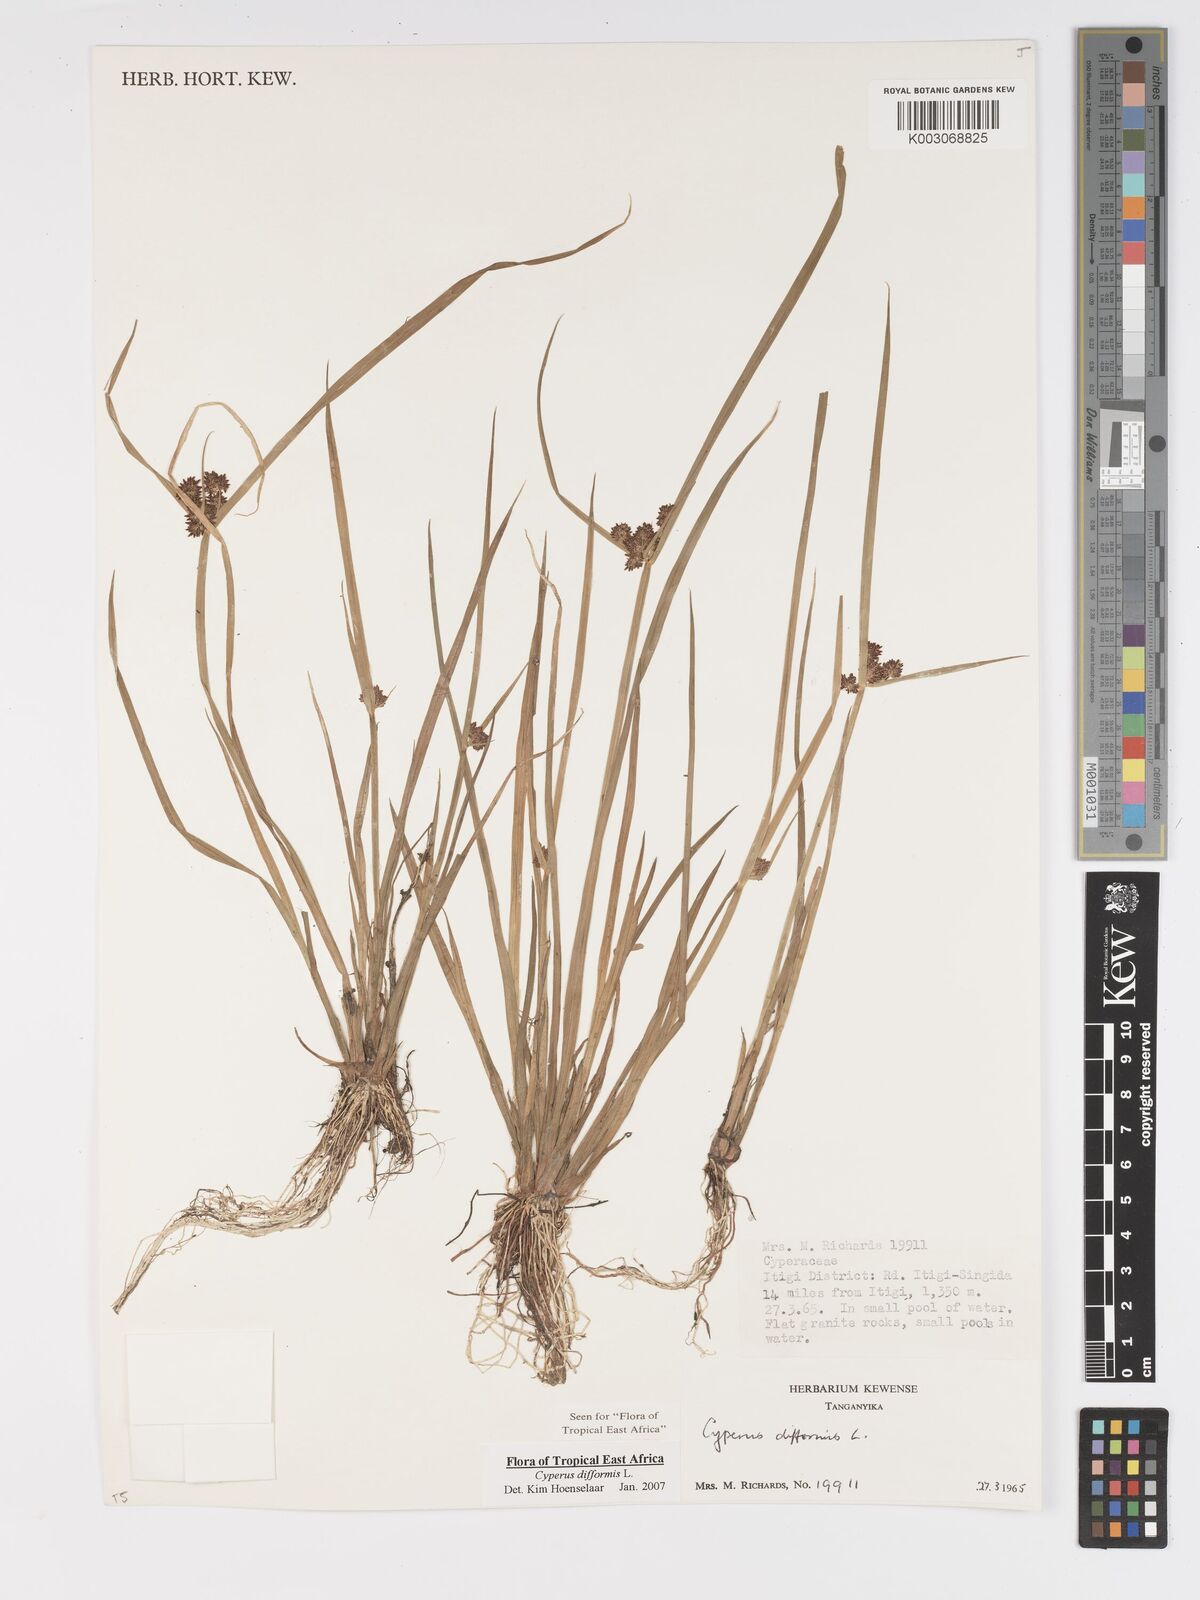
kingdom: Plantae
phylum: Tracheophyta
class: Liliopsida
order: Poales
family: Cyperaceae
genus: Cyperus
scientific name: Cyperus difformis
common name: Variable flatsedge
